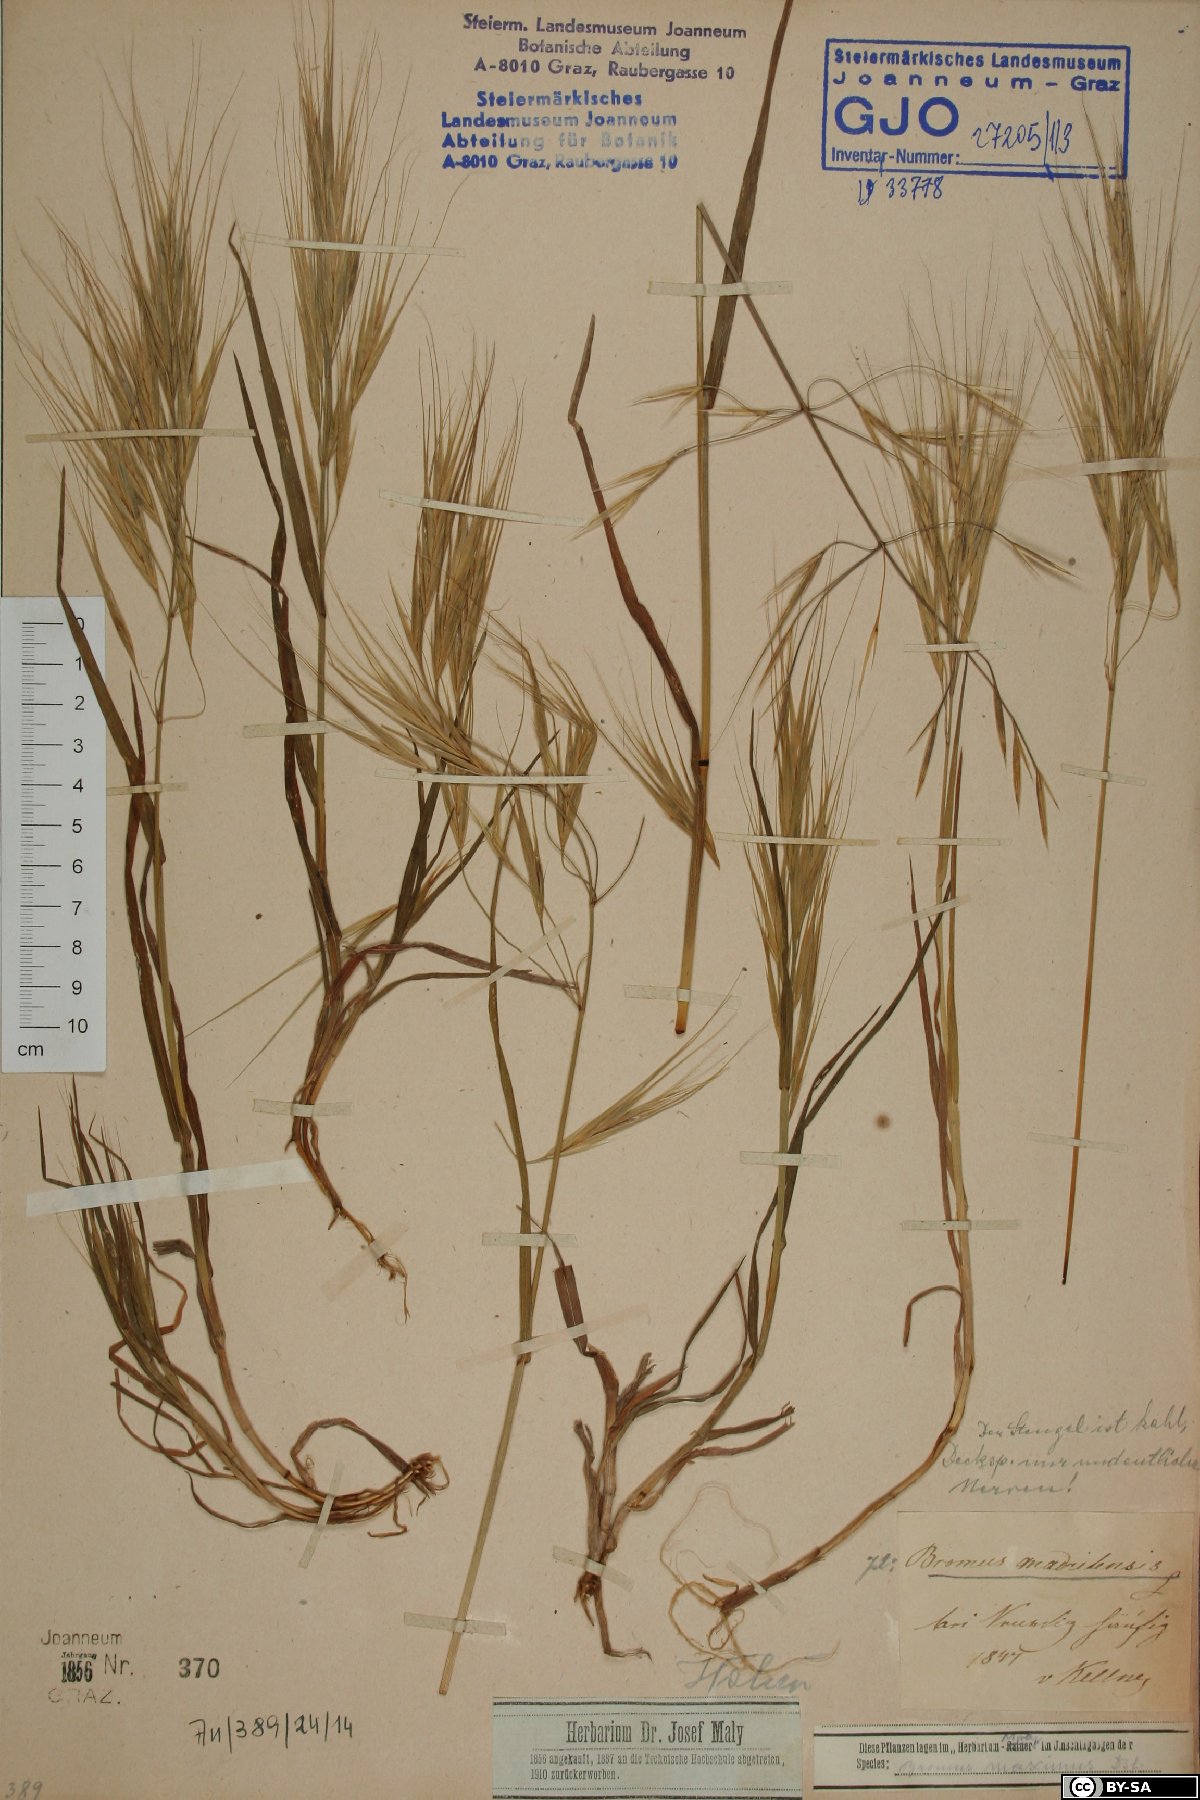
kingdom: Plantae
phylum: Tracheophyta
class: Liliopsida
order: Poales
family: Poaceae
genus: Bromus
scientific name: Bromus madritensis
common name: Compact brome
